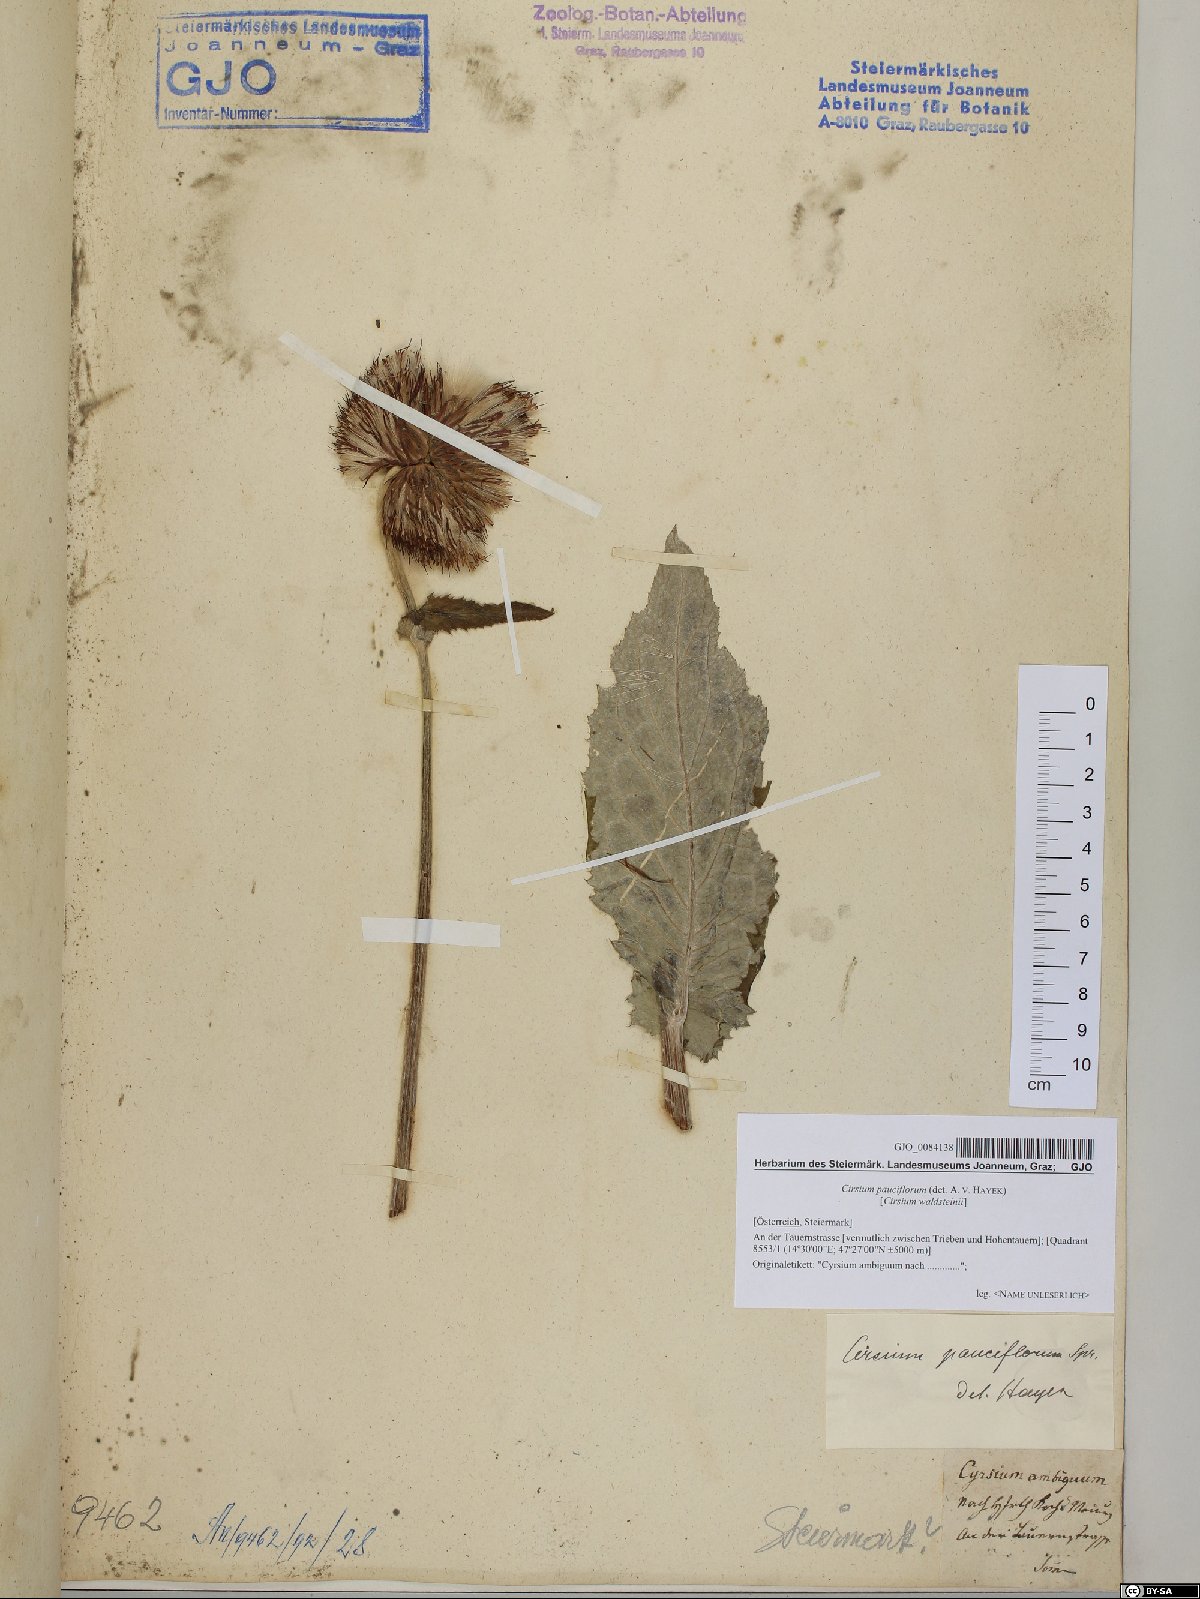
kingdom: Plantae
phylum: Tracheophyta
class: Magnoliopsida
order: Asterales
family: Asteraceae
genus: Cirsium
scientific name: Cirsium greimleri
